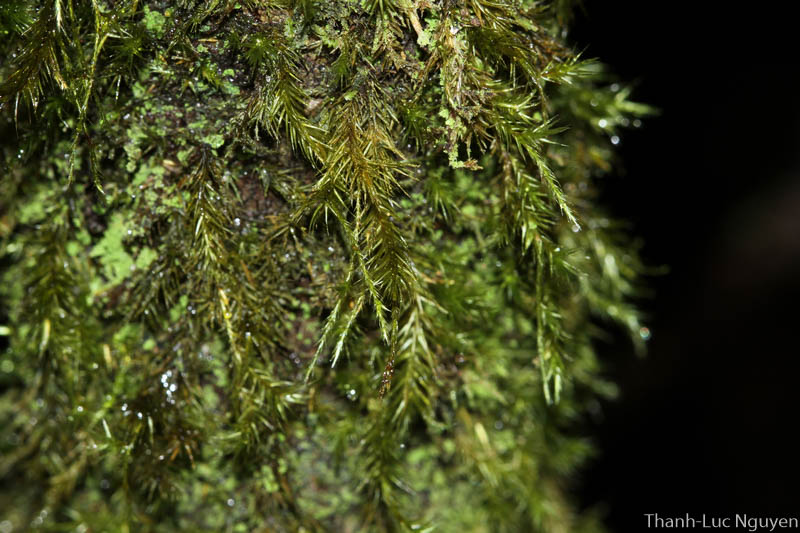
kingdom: Plantae
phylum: Bryophyta
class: Bryopsida
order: Hypnales
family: Sematophyllaceae
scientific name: Sematophyllaceae
